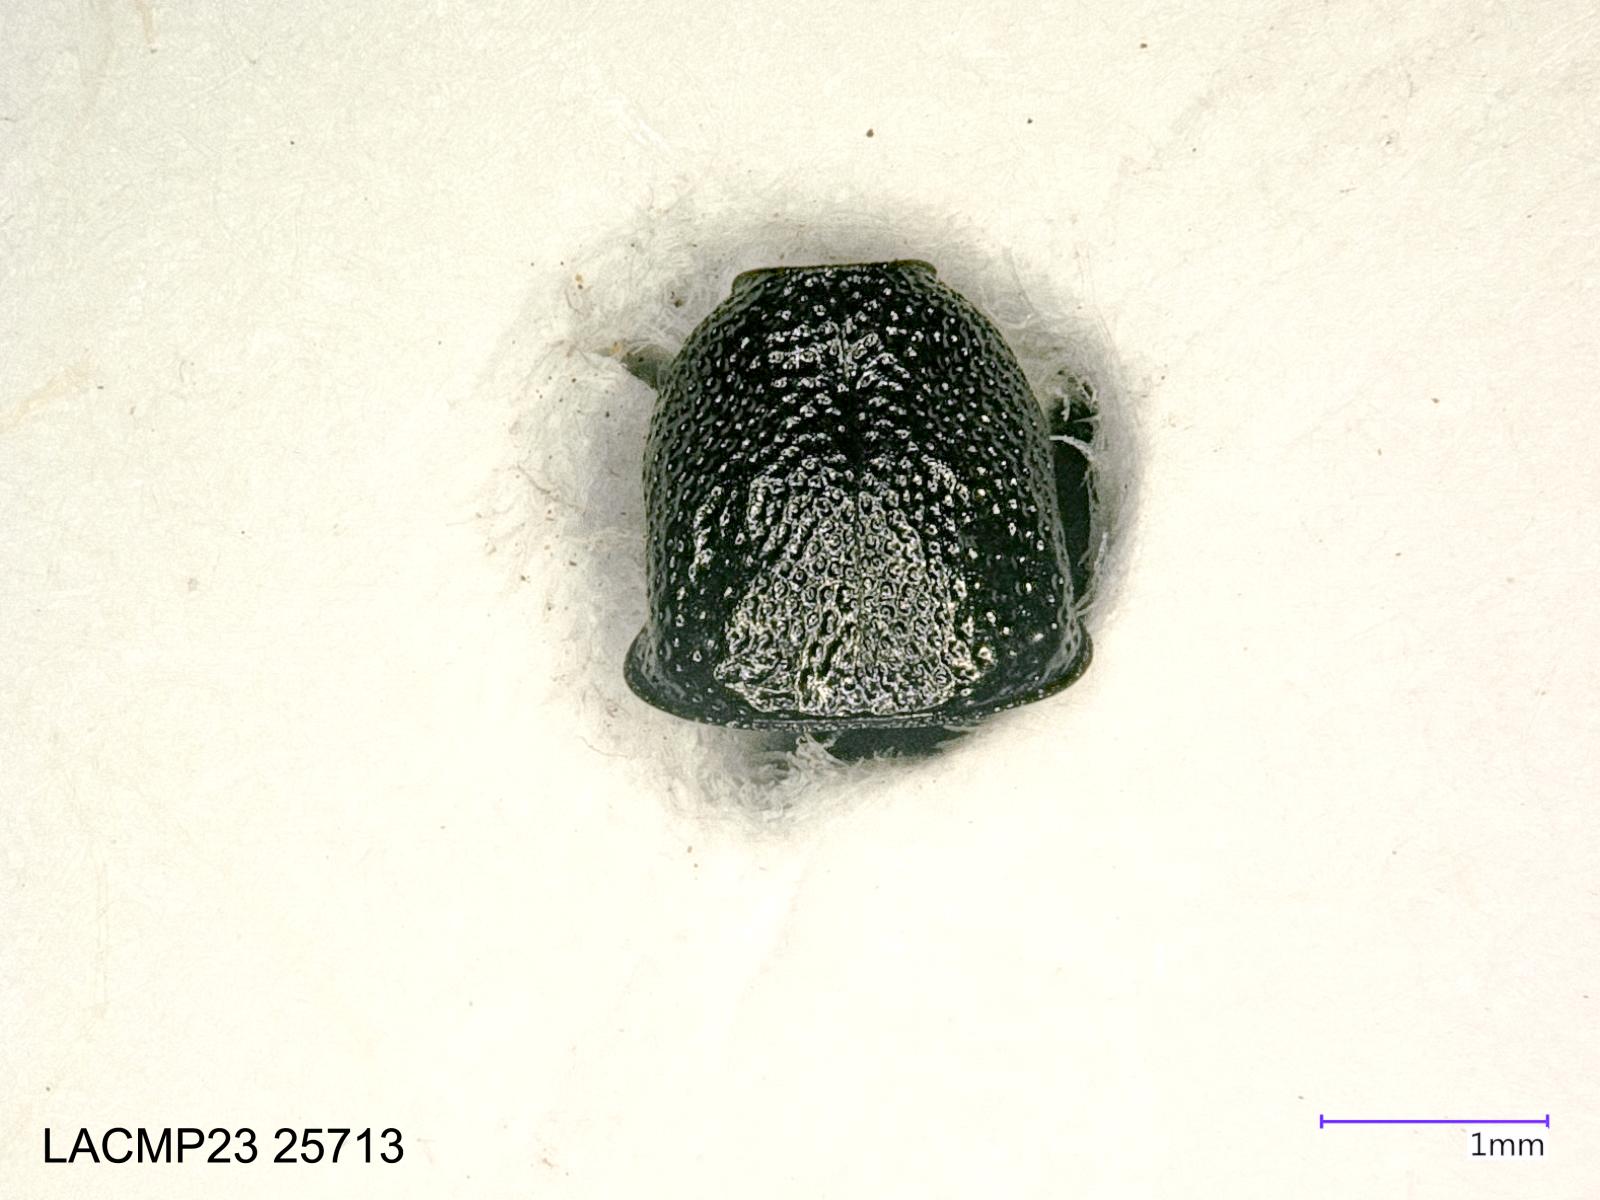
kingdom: Animalia
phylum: Arthropoda
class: Insecta
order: Coleoptera
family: Carabidae
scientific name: Carabidae
